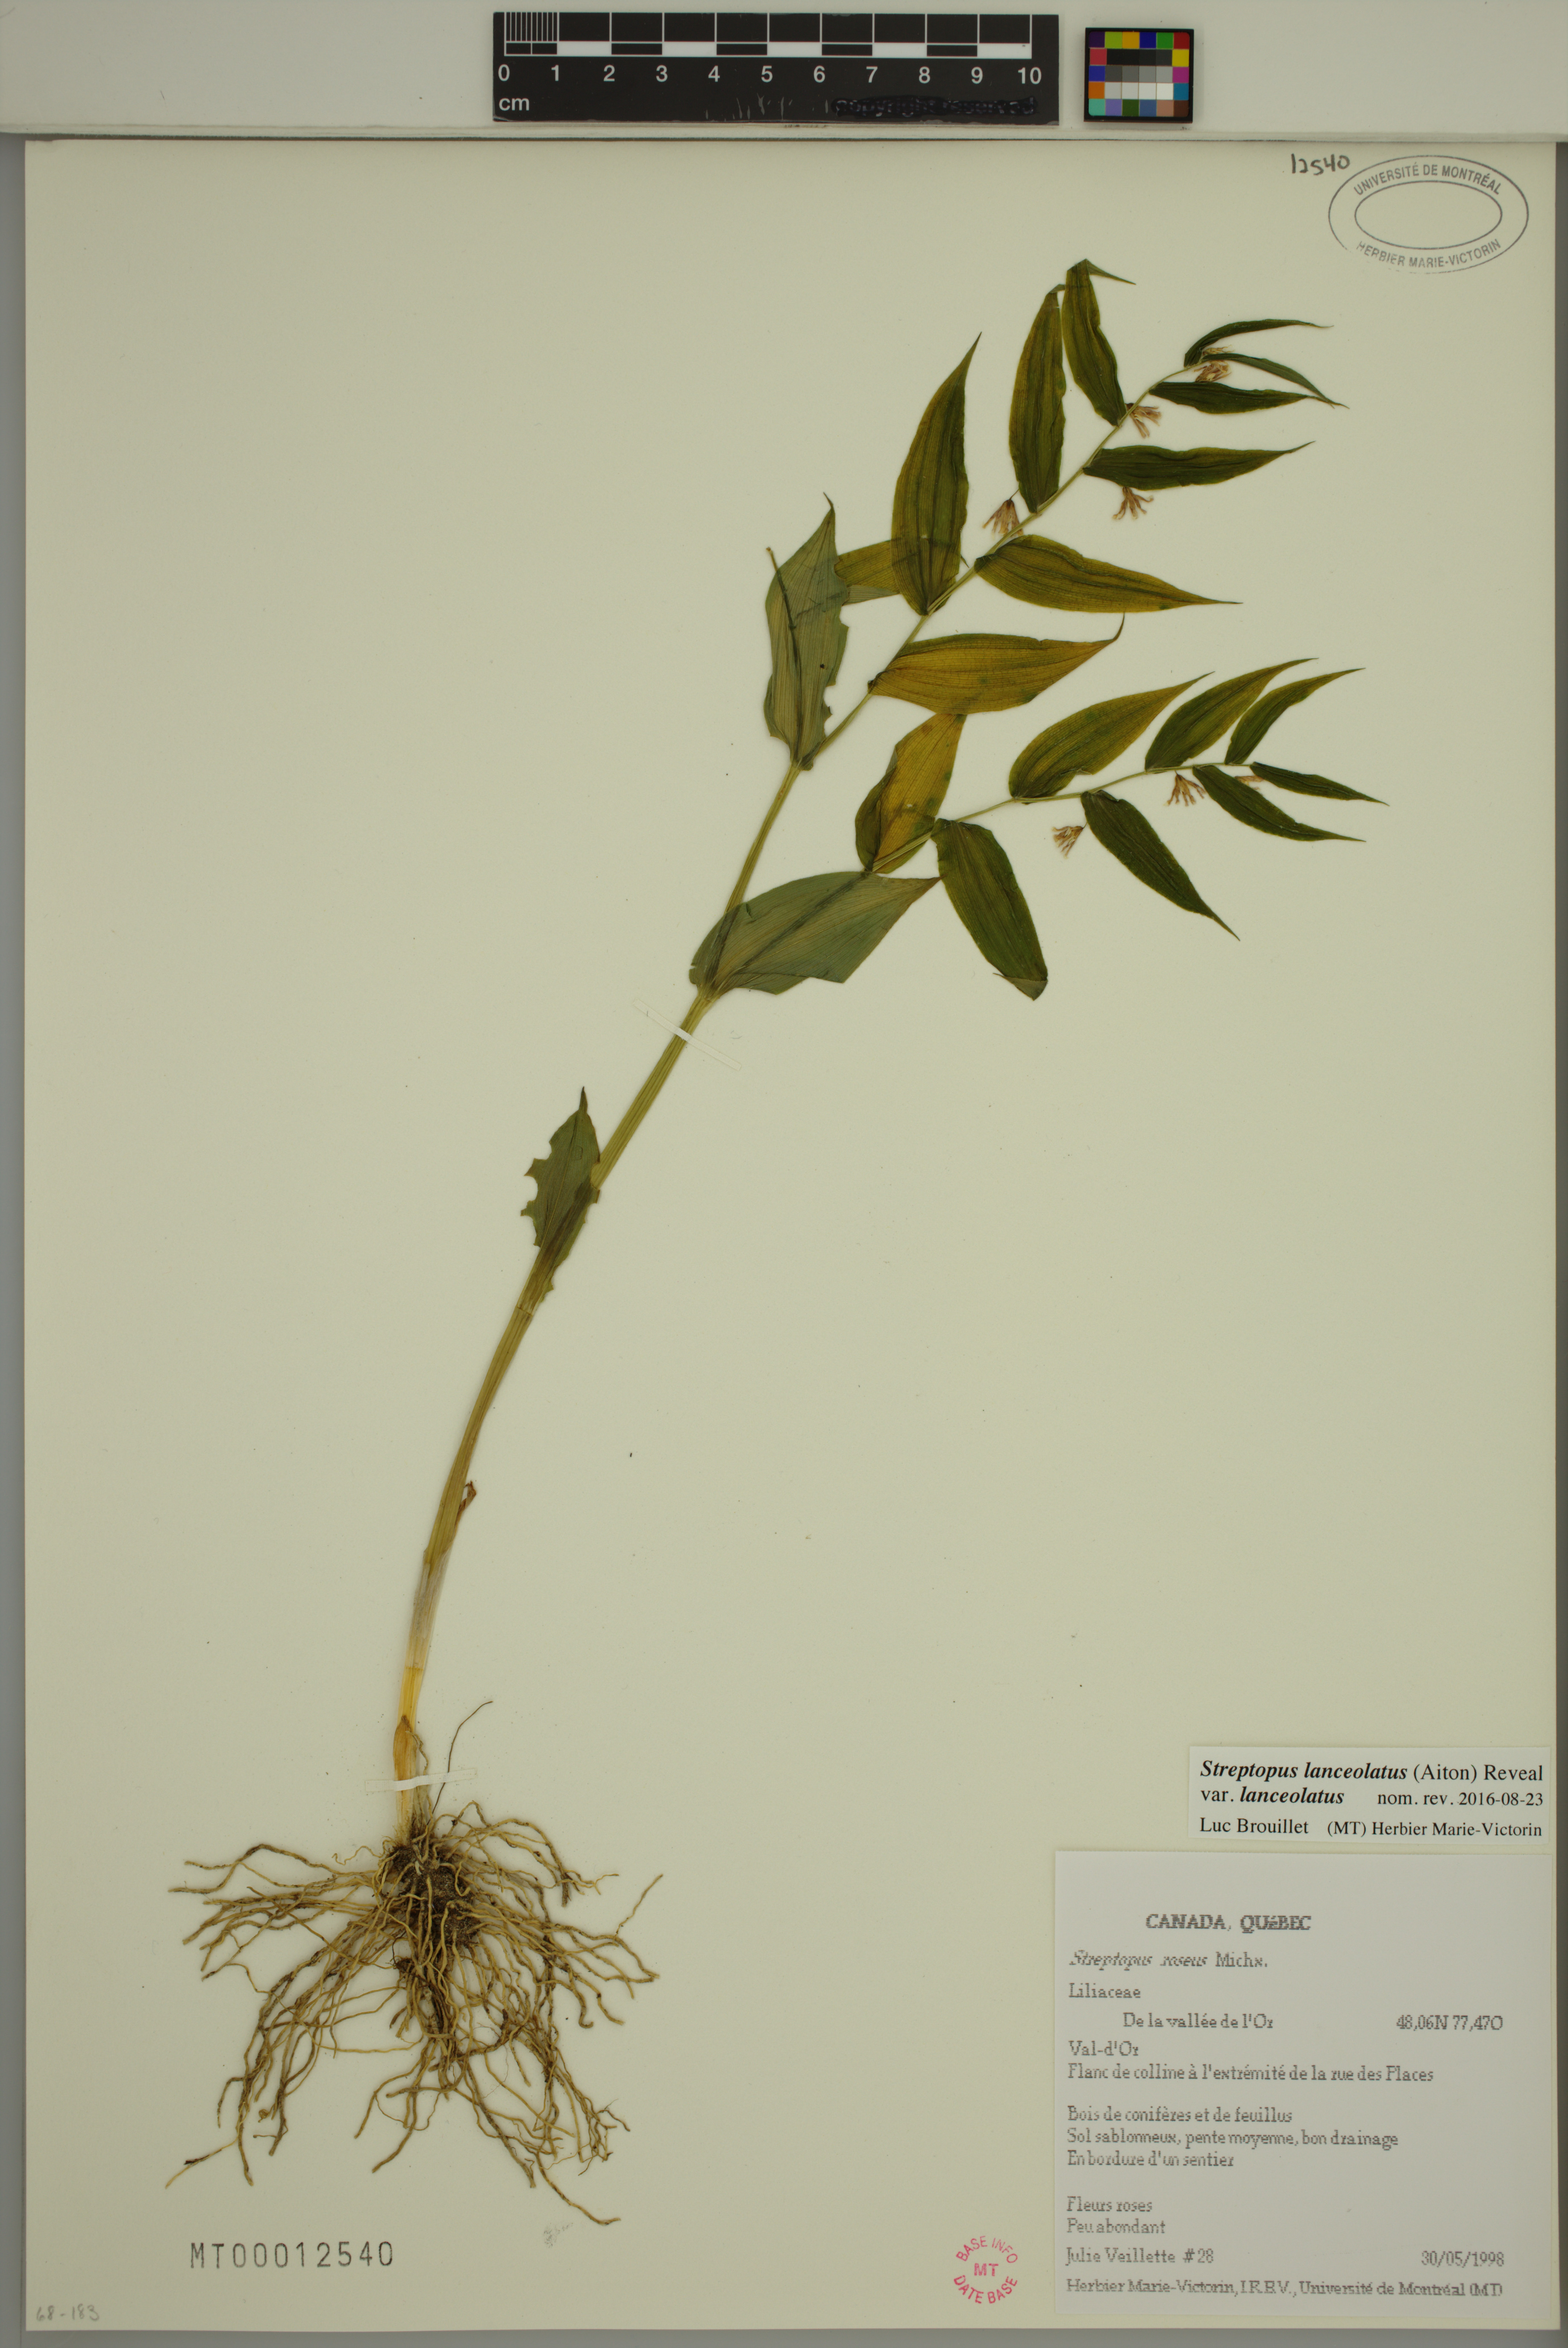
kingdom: Plantae
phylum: Tracheophyta
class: Liliopsida
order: Liliales
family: Liliaceae
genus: Streptopus
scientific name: Streptopus lanceolatus
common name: Rose mandarin
